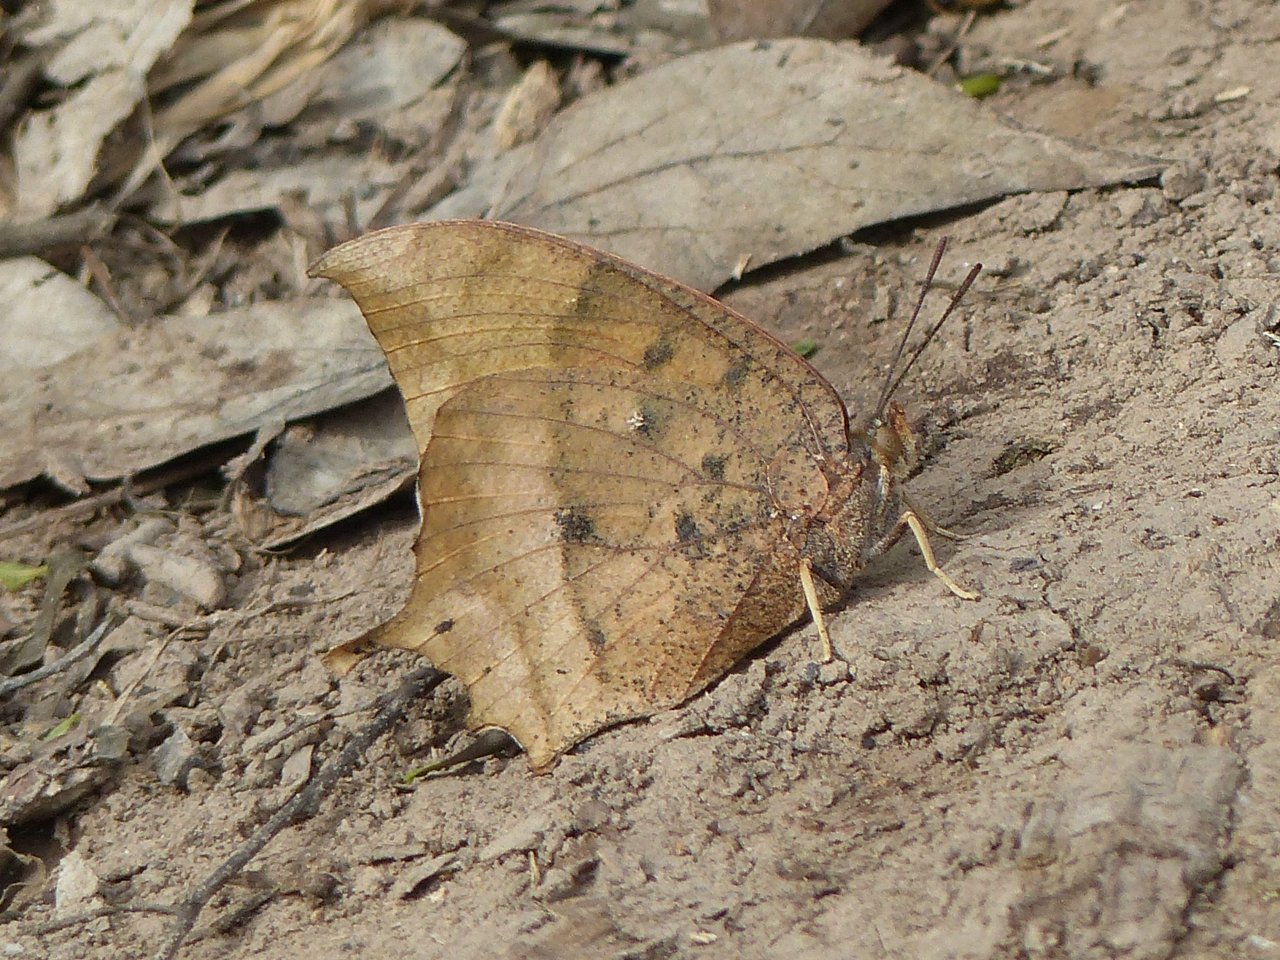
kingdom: Animalia
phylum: Arthropoda
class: Insecta
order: Lepidoptera
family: Nymphalidae
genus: Anaea
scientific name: Anaea aidea
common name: Tropical Leafwing
